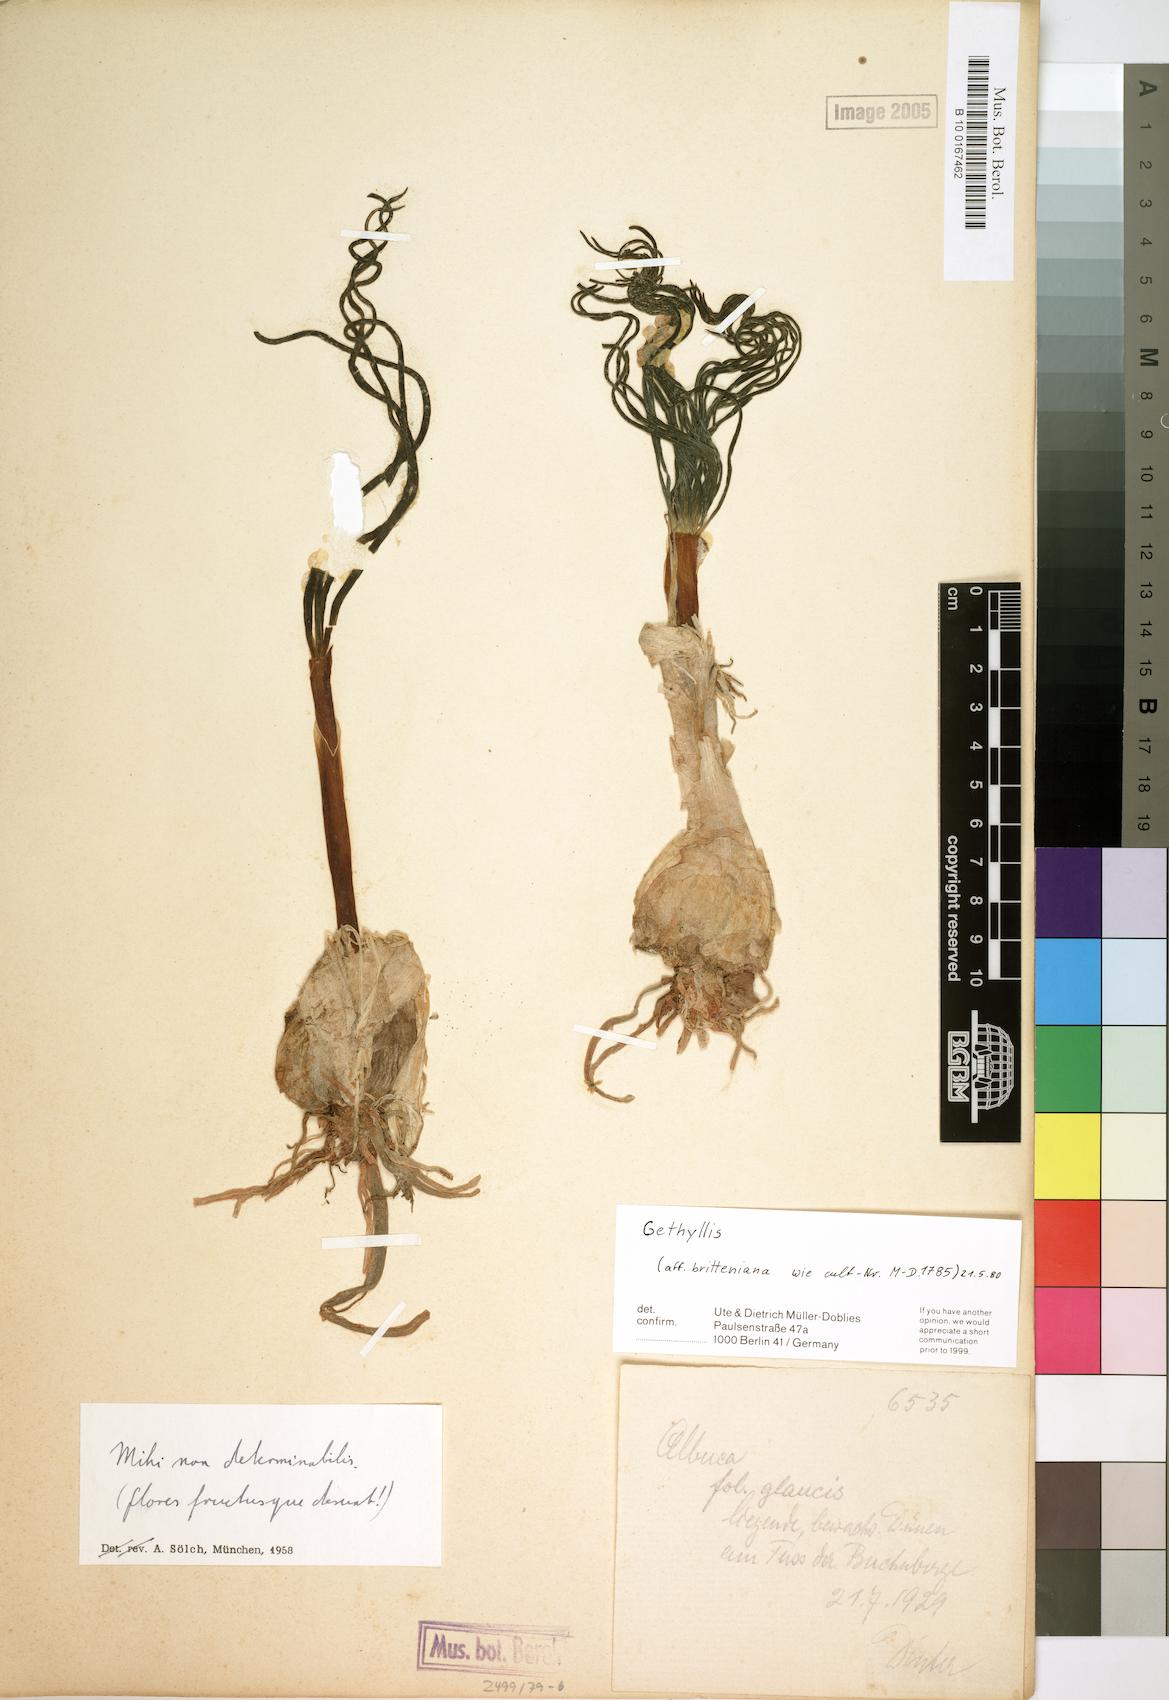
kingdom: Plantae
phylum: Tracheophyta
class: Liliopsida
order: Asparagales
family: Amaryllidaceae
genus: Gethyllis
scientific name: Gethyllis britteniana
